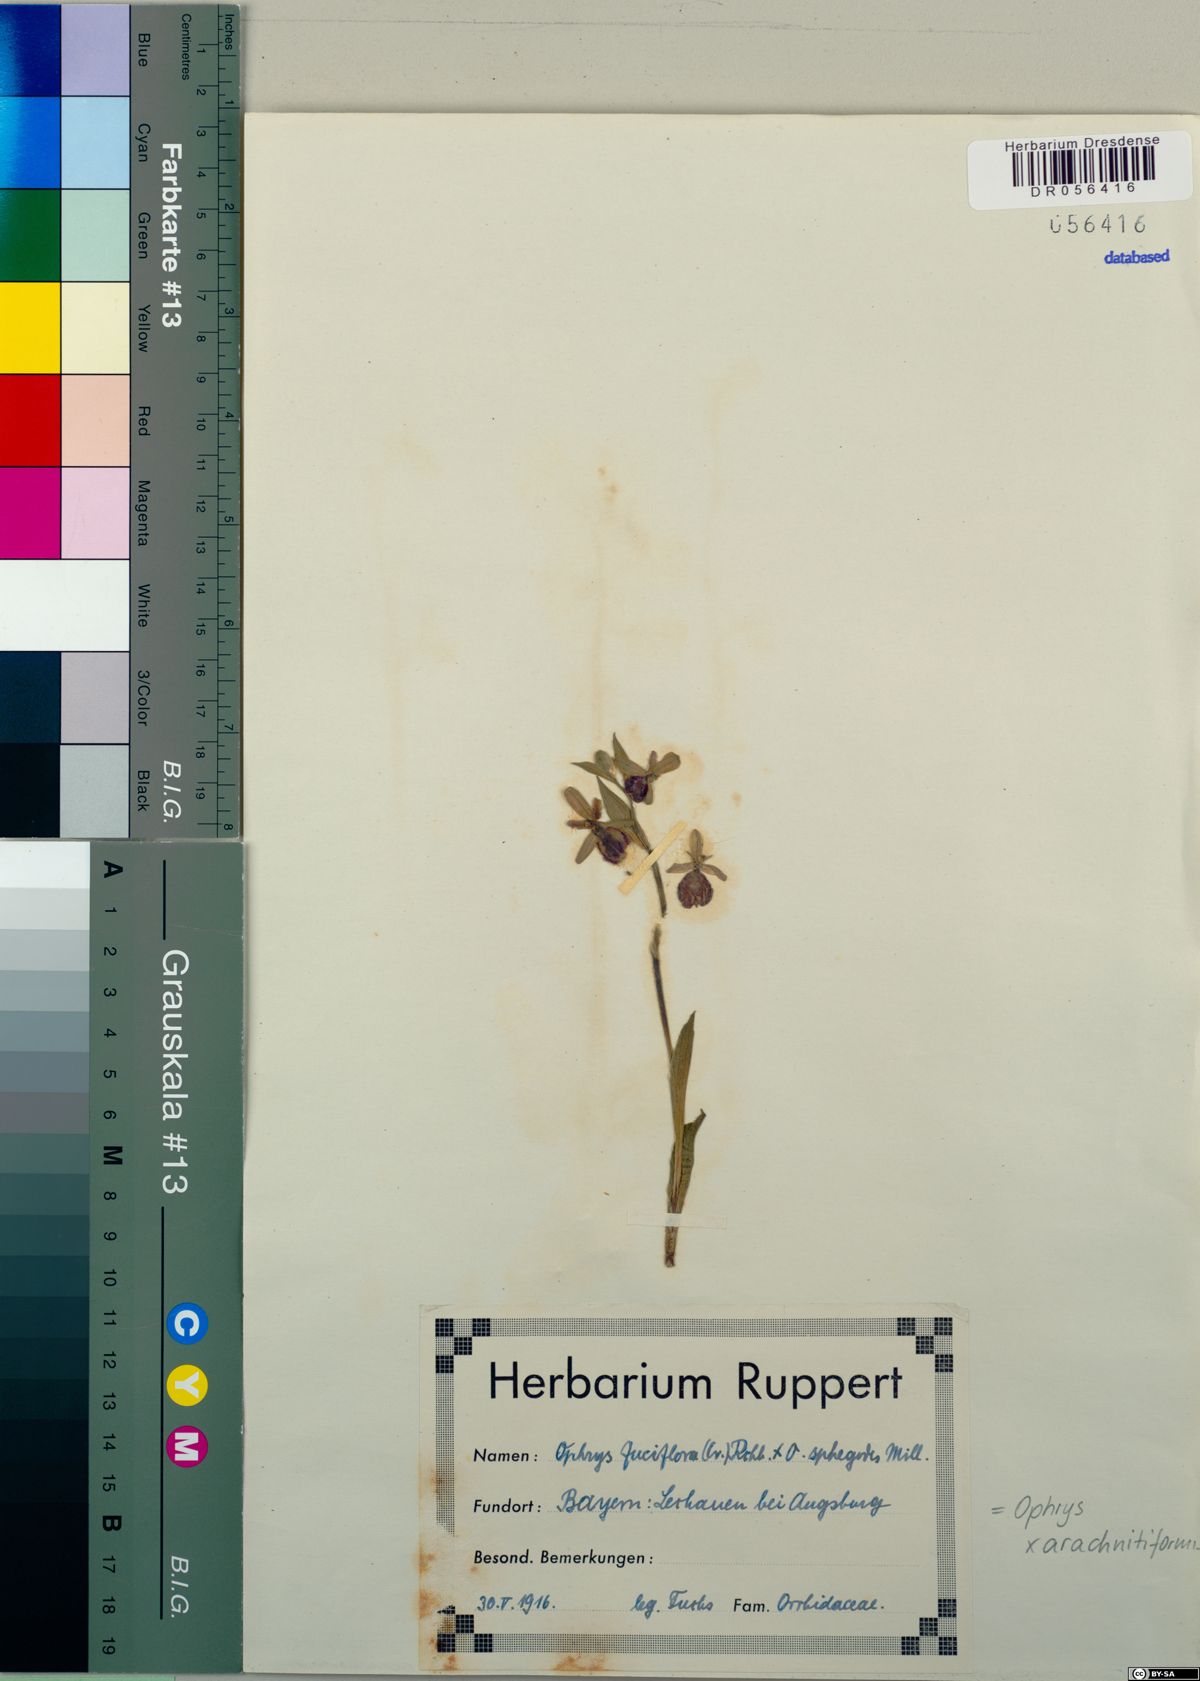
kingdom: Plantae
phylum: Tracheophyta
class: Liliopsida
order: Asparagales
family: Orchidaceae
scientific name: Orchidaceae
